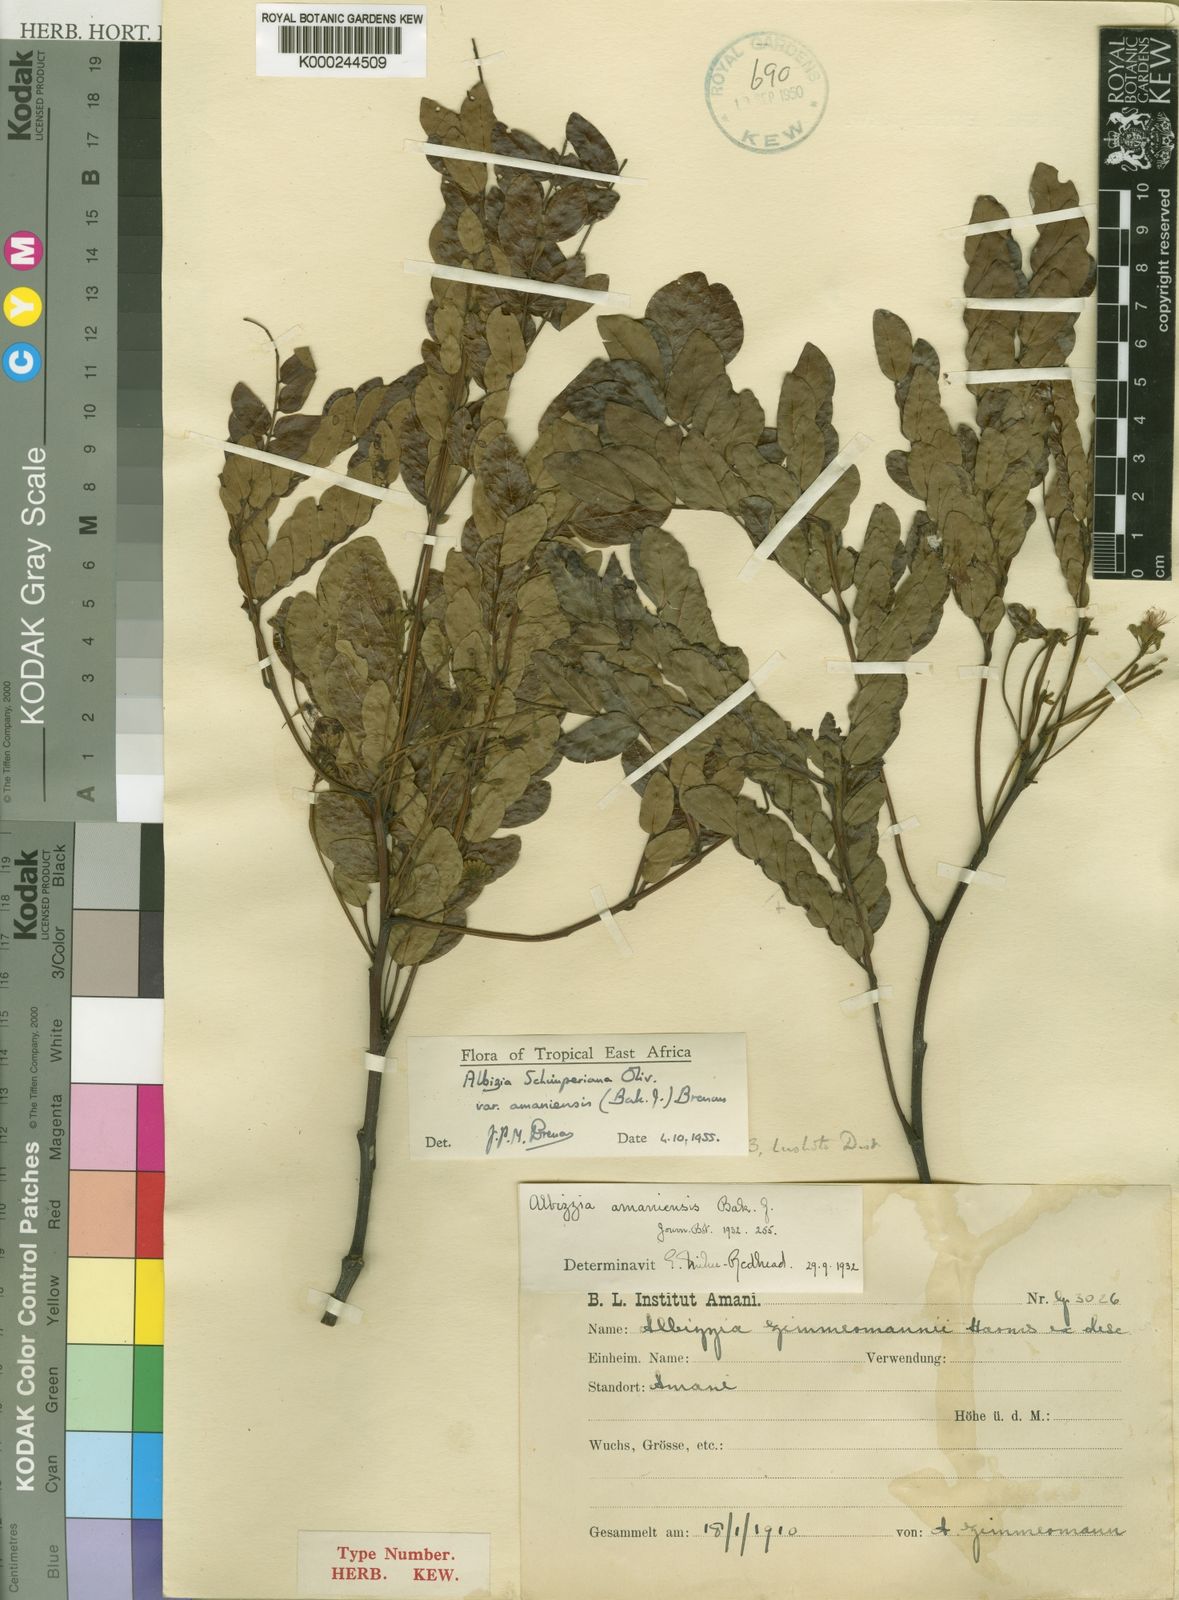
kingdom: Plantae
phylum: Tracheophyta
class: Magnoliopsida
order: Fabales
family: Fabaceae
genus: Albizia
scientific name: Albizia schimperiana
